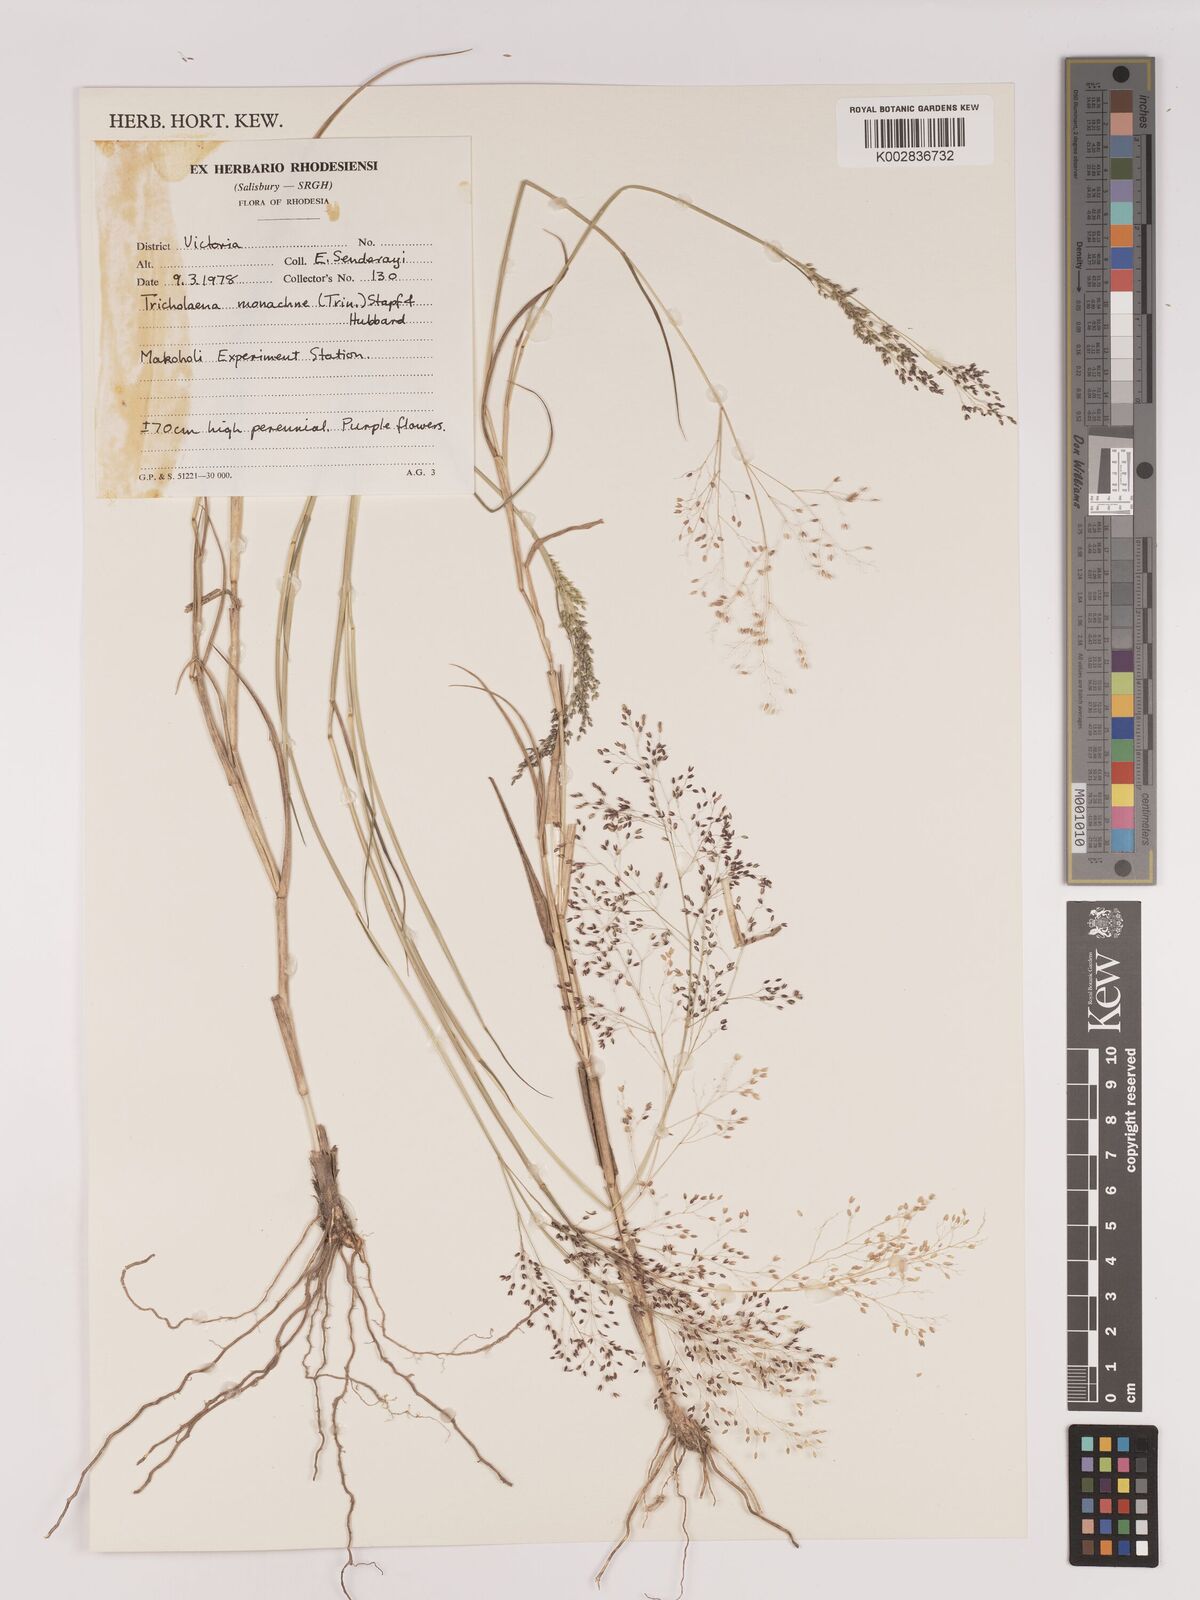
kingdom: Plantae
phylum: Tracheophyta
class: Liliopsida
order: Poales
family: Poaceae
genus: Tricholaena
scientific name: Tricholaena monachne
